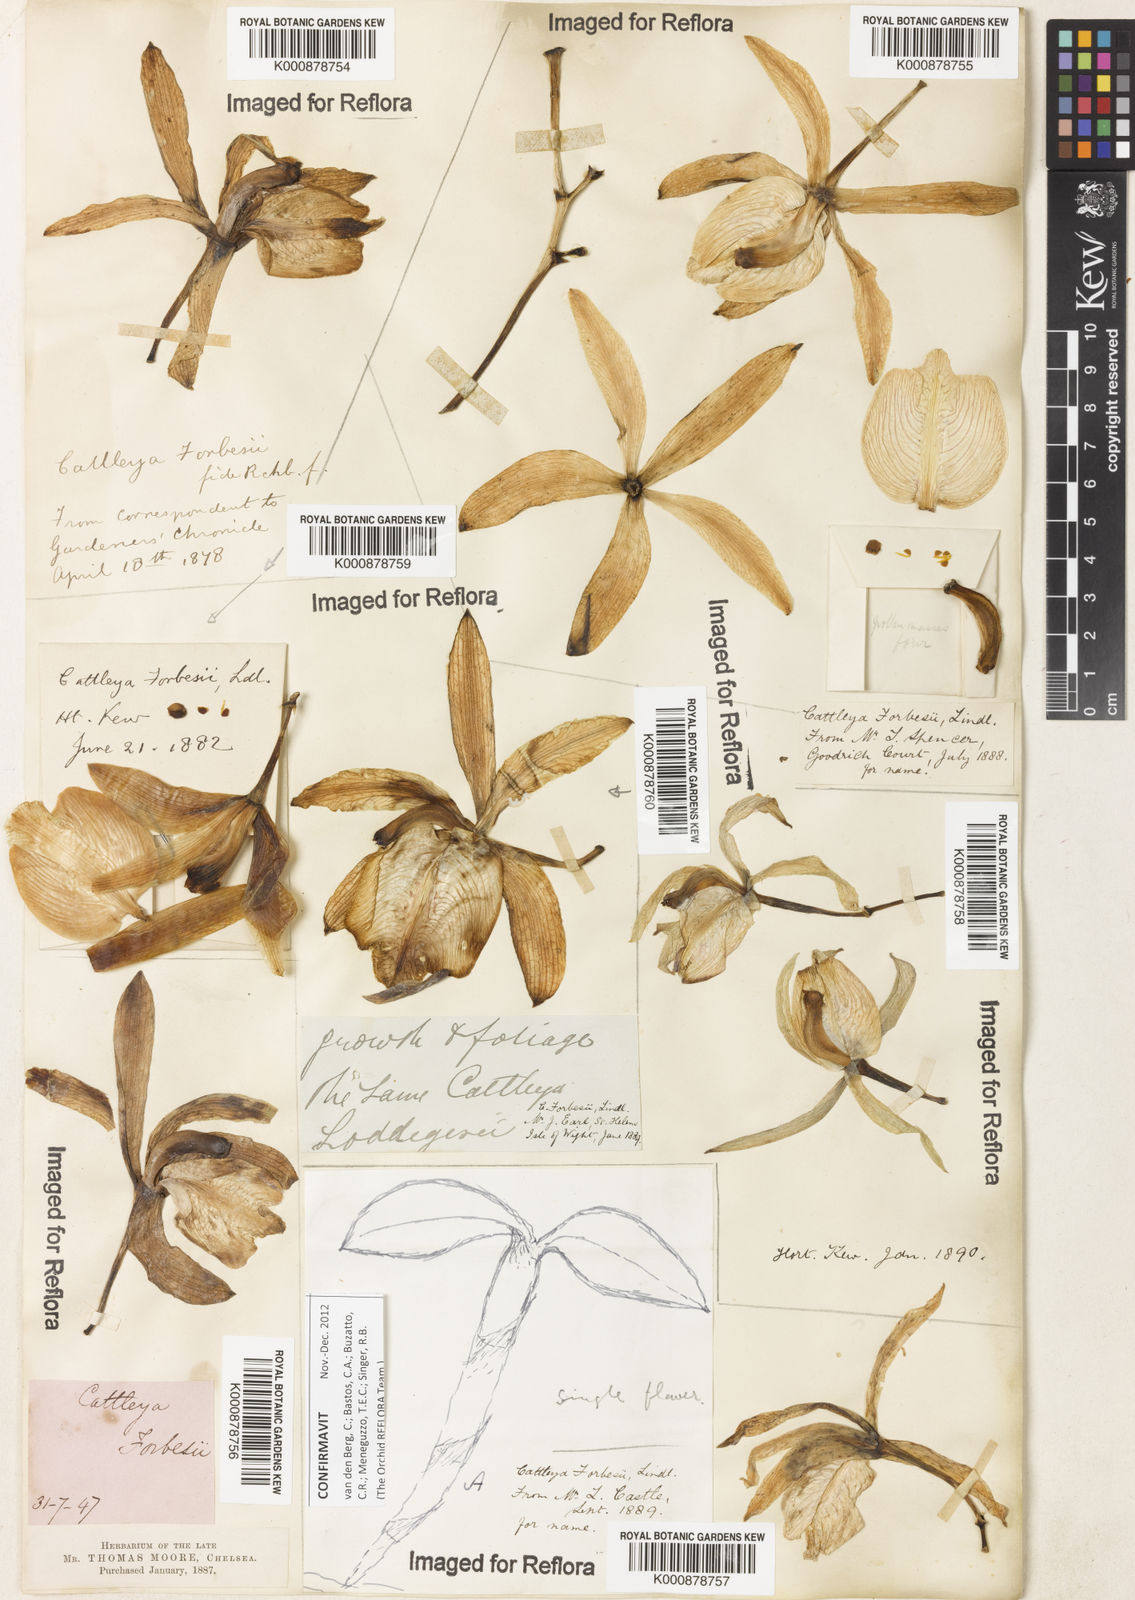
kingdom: Plantae
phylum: Tracheophyta
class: Liliopsida
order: Asparagales
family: Orchidaceae
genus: Cattleya
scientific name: Cattleya forbesii
